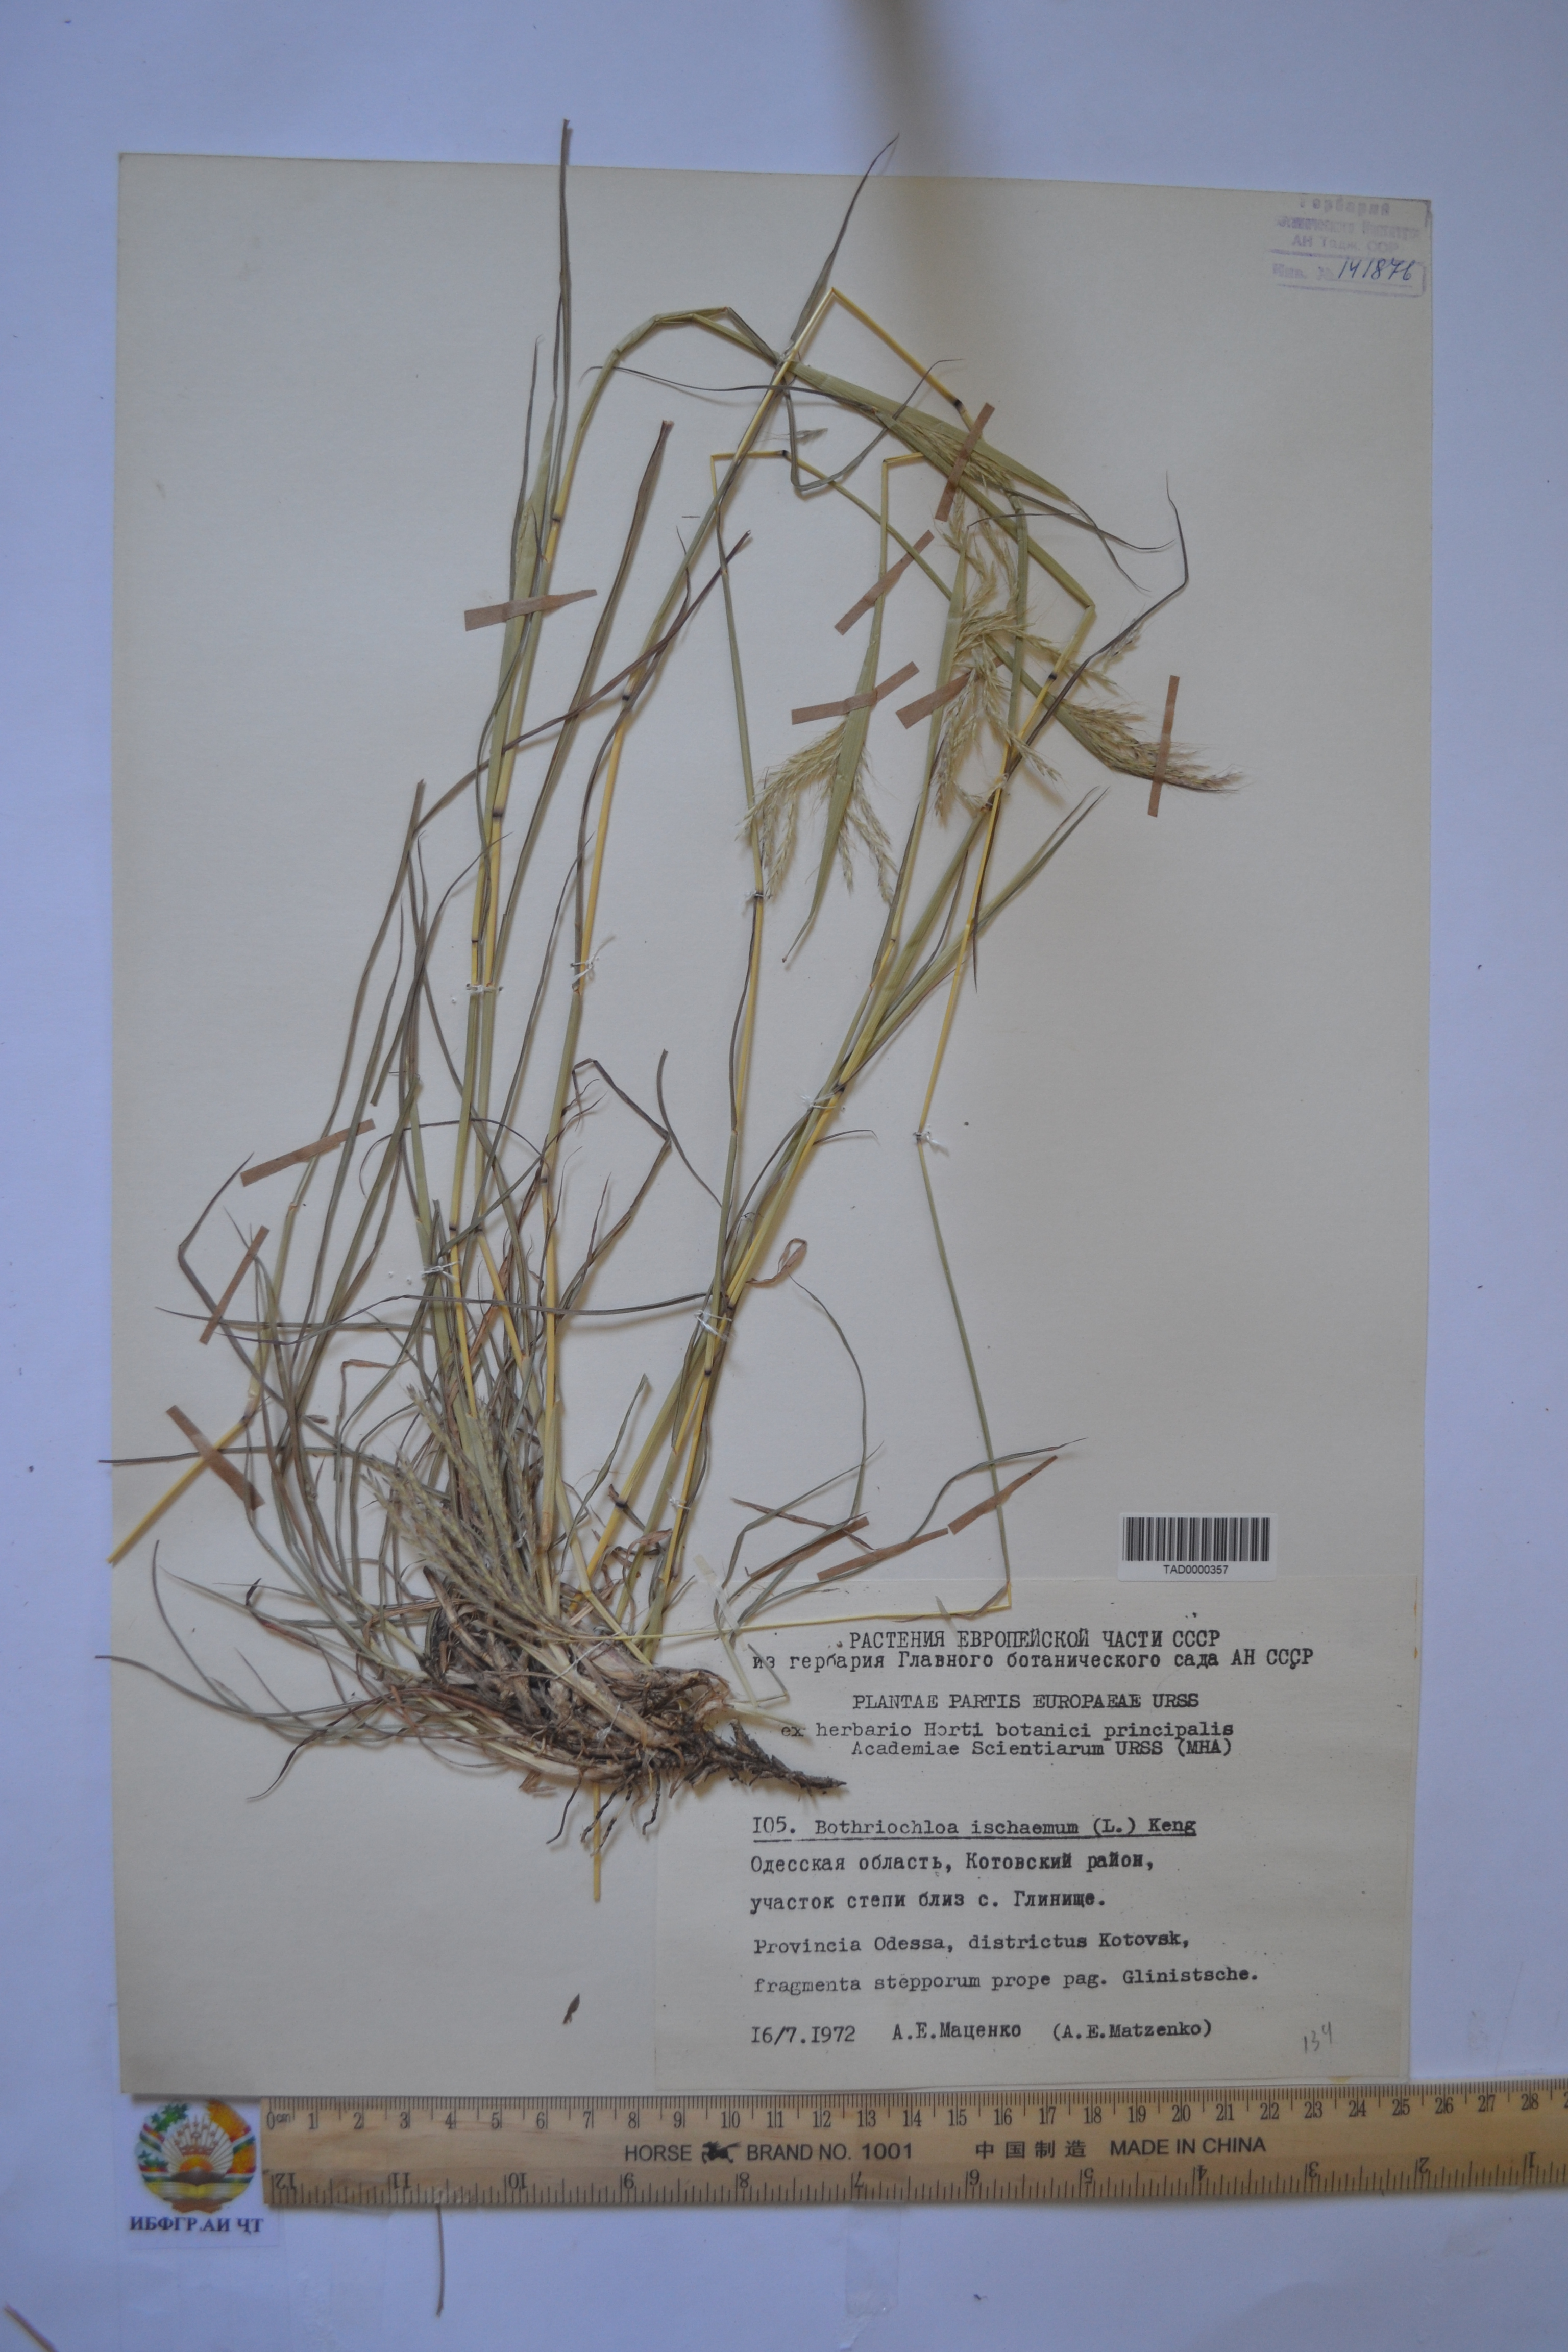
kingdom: Plantae
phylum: Tracheophyta
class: Liliopsida
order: Poales
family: Poaceae
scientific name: Poaceae
